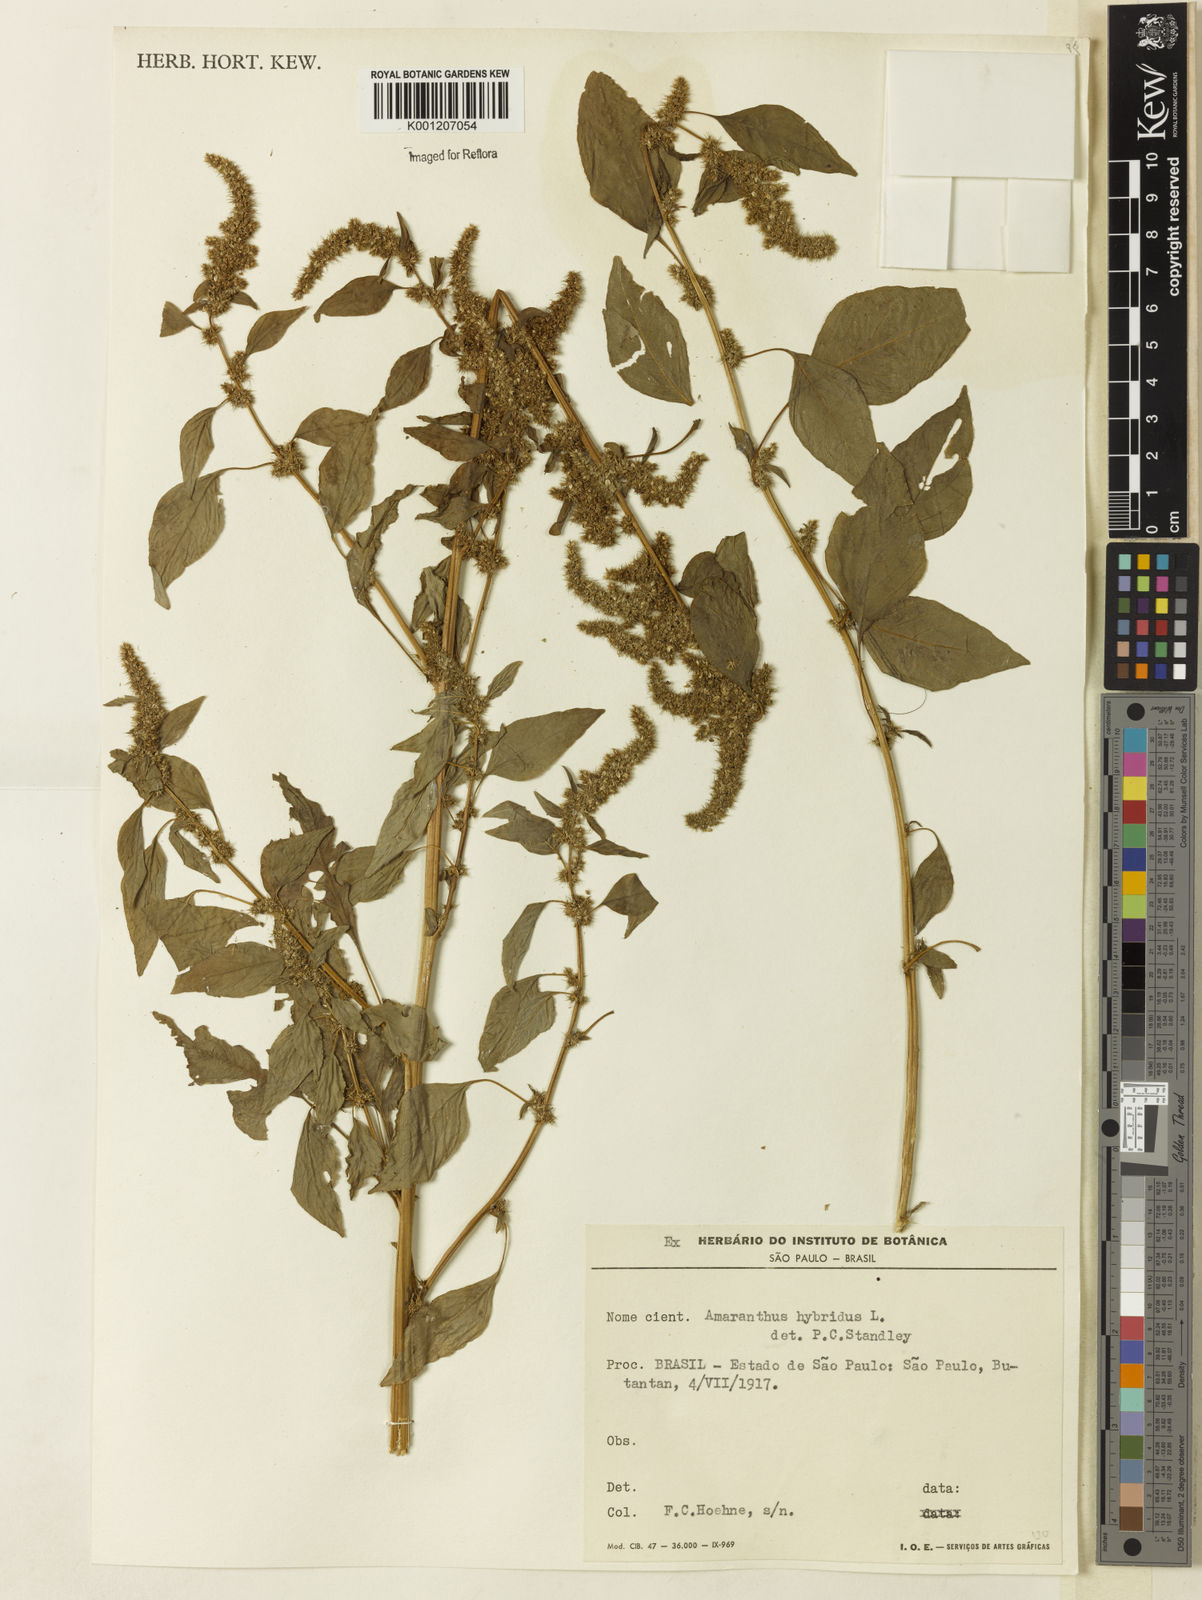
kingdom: Plantae
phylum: Tracheophyta
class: Magnoliopsida
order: Caryophyllales
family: Amaranthaceae
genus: Amaranthus
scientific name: Amaranthus hybridus
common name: Green amaranth
